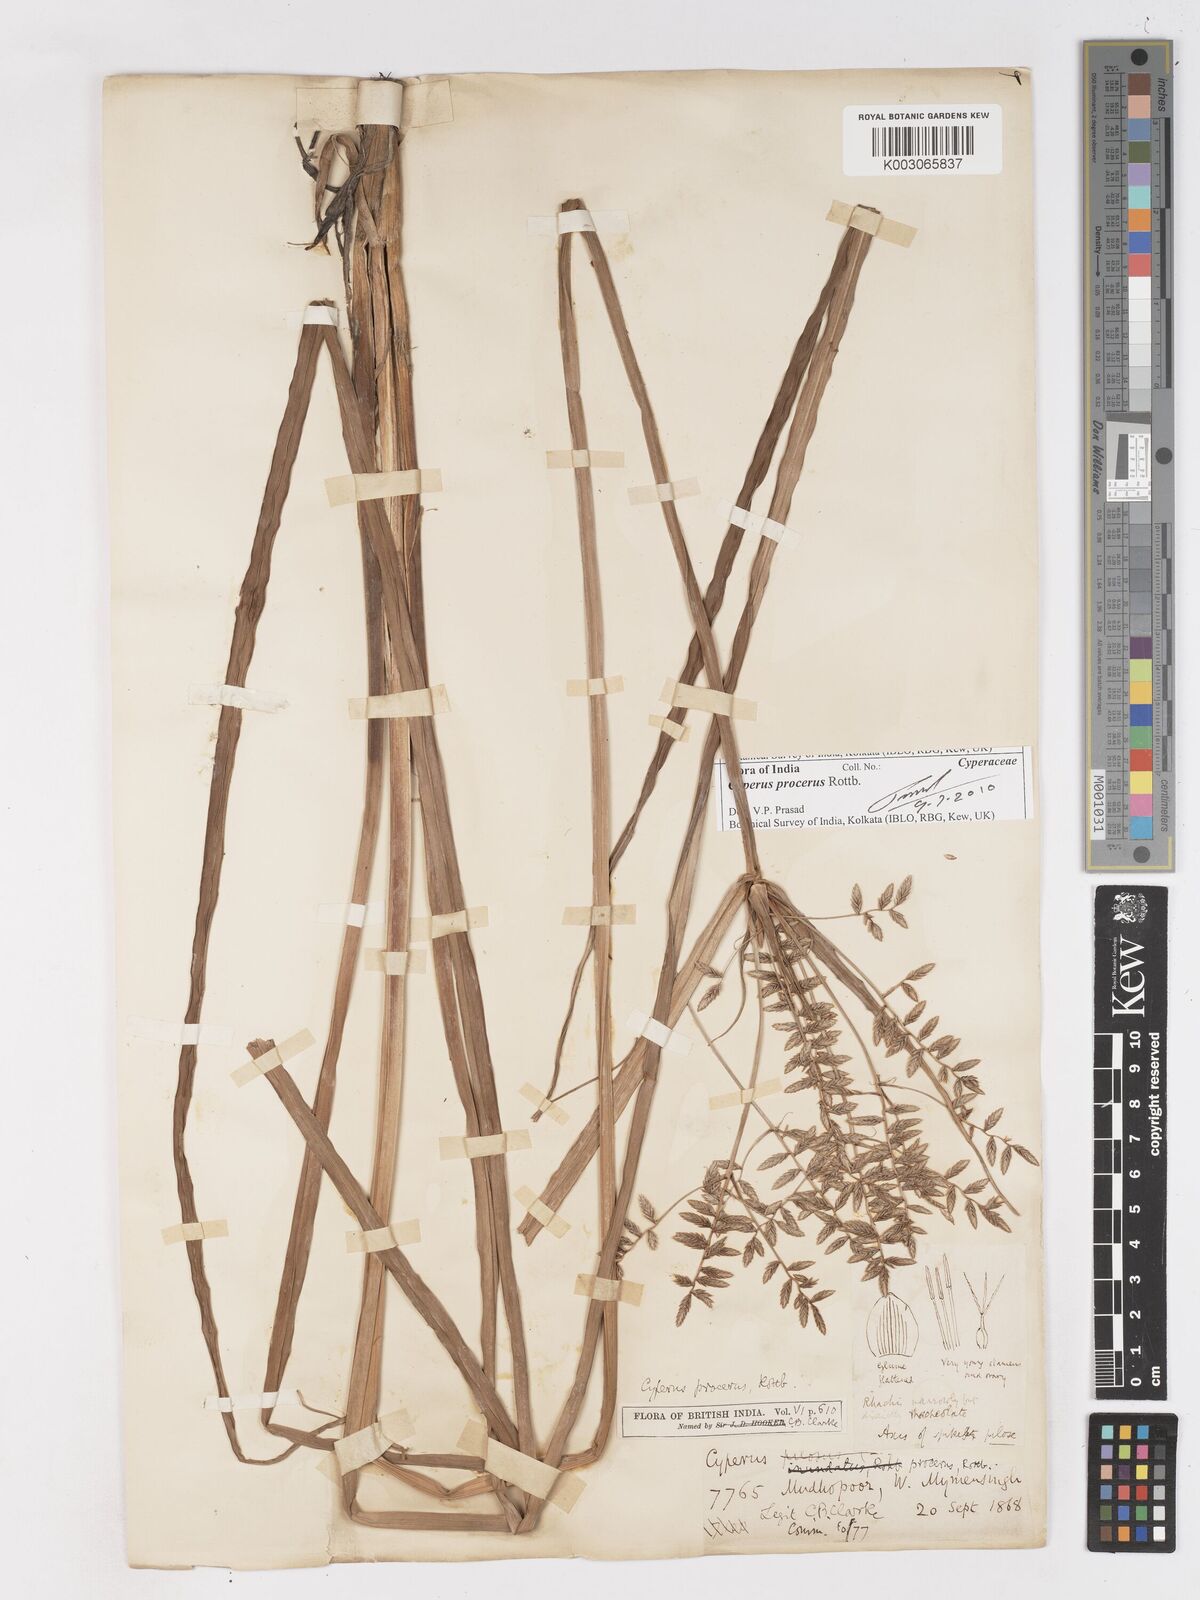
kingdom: Plantae
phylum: Tracheophyta
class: Liliopsida
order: Poales
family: Cyperaceae
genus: Cyperus
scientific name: Cyperus procerus
